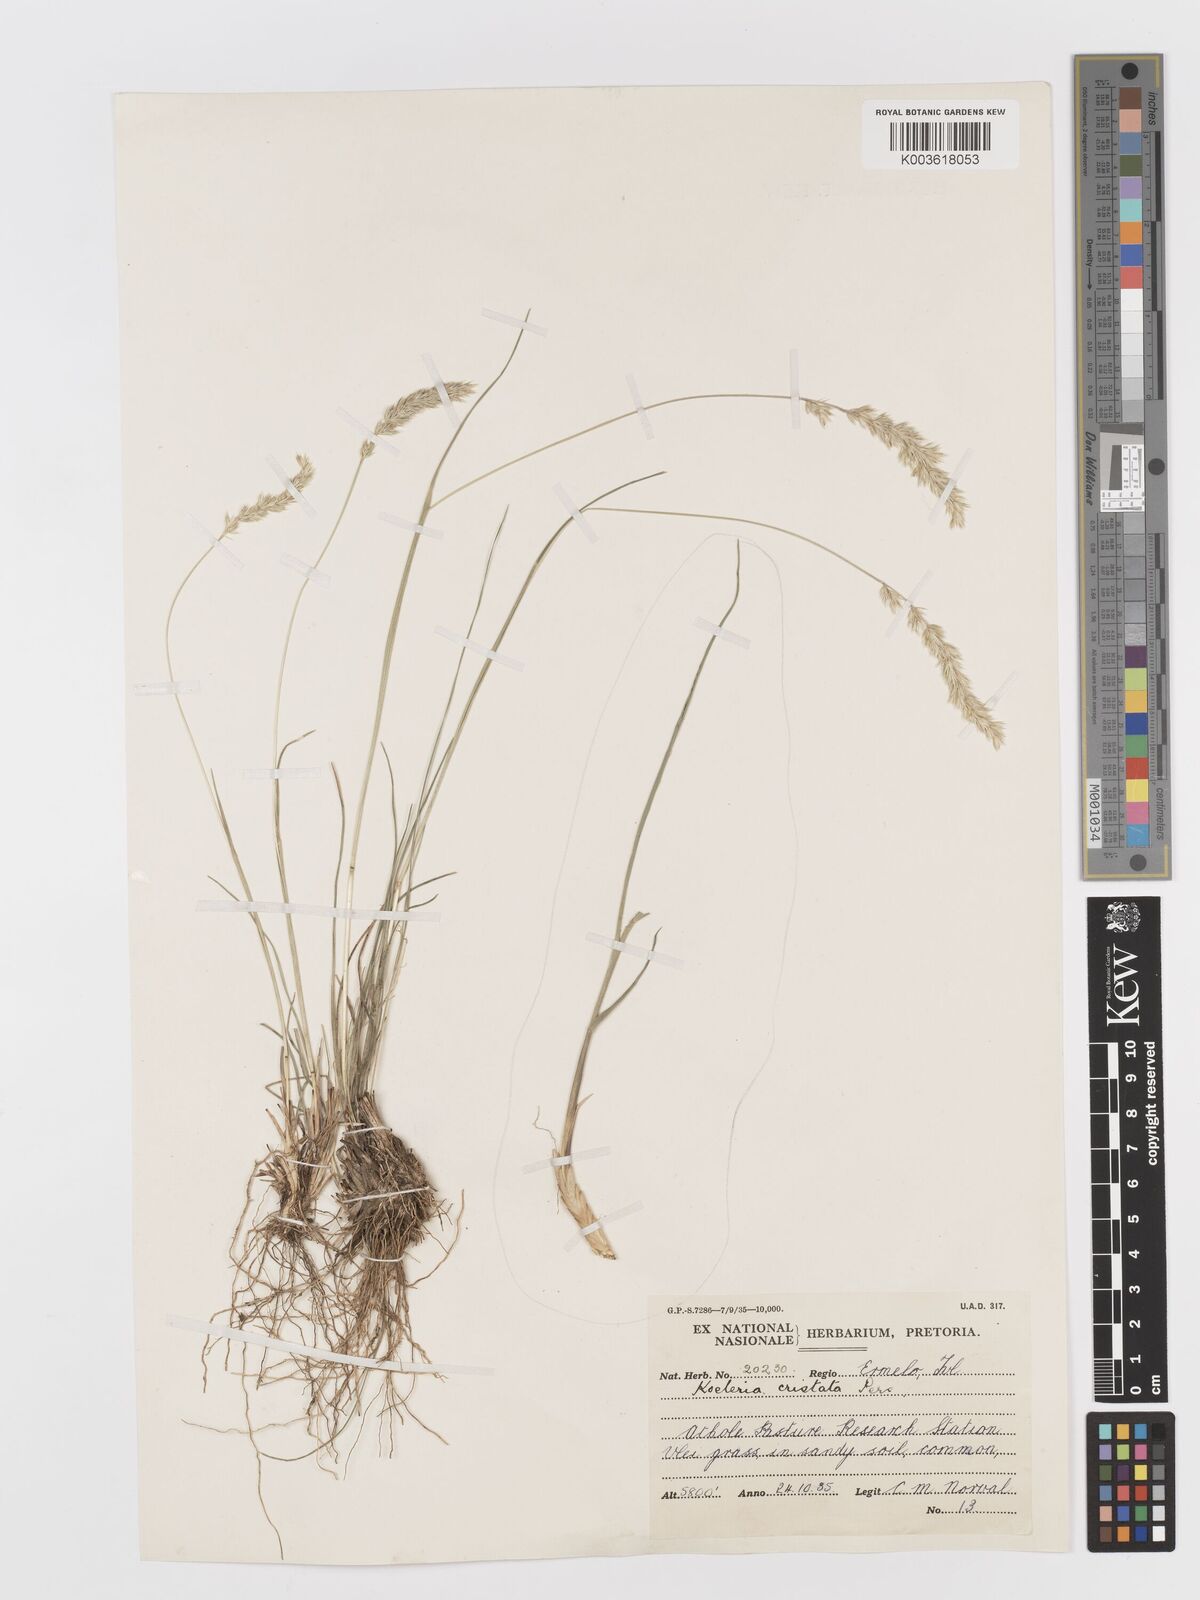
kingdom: Plantae
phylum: Tracheophyta
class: Liliopsida
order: Poales
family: Poaceae
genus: Koeleria
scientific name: Koeleria capensis
